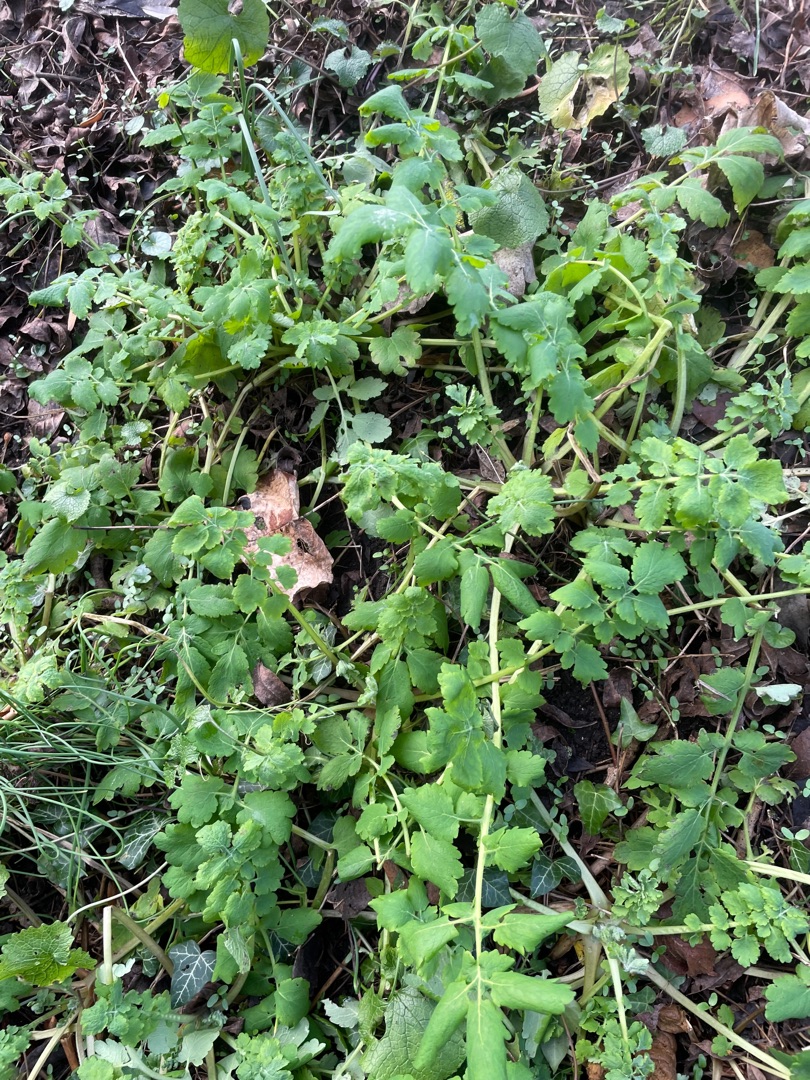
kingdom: Plantae
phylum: Tracheophyta
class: Magnoliopsida
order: Ranunculales
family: Papaveraceae
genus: Chelidonium
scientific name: Chelidonium majus
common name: Svaleurt
